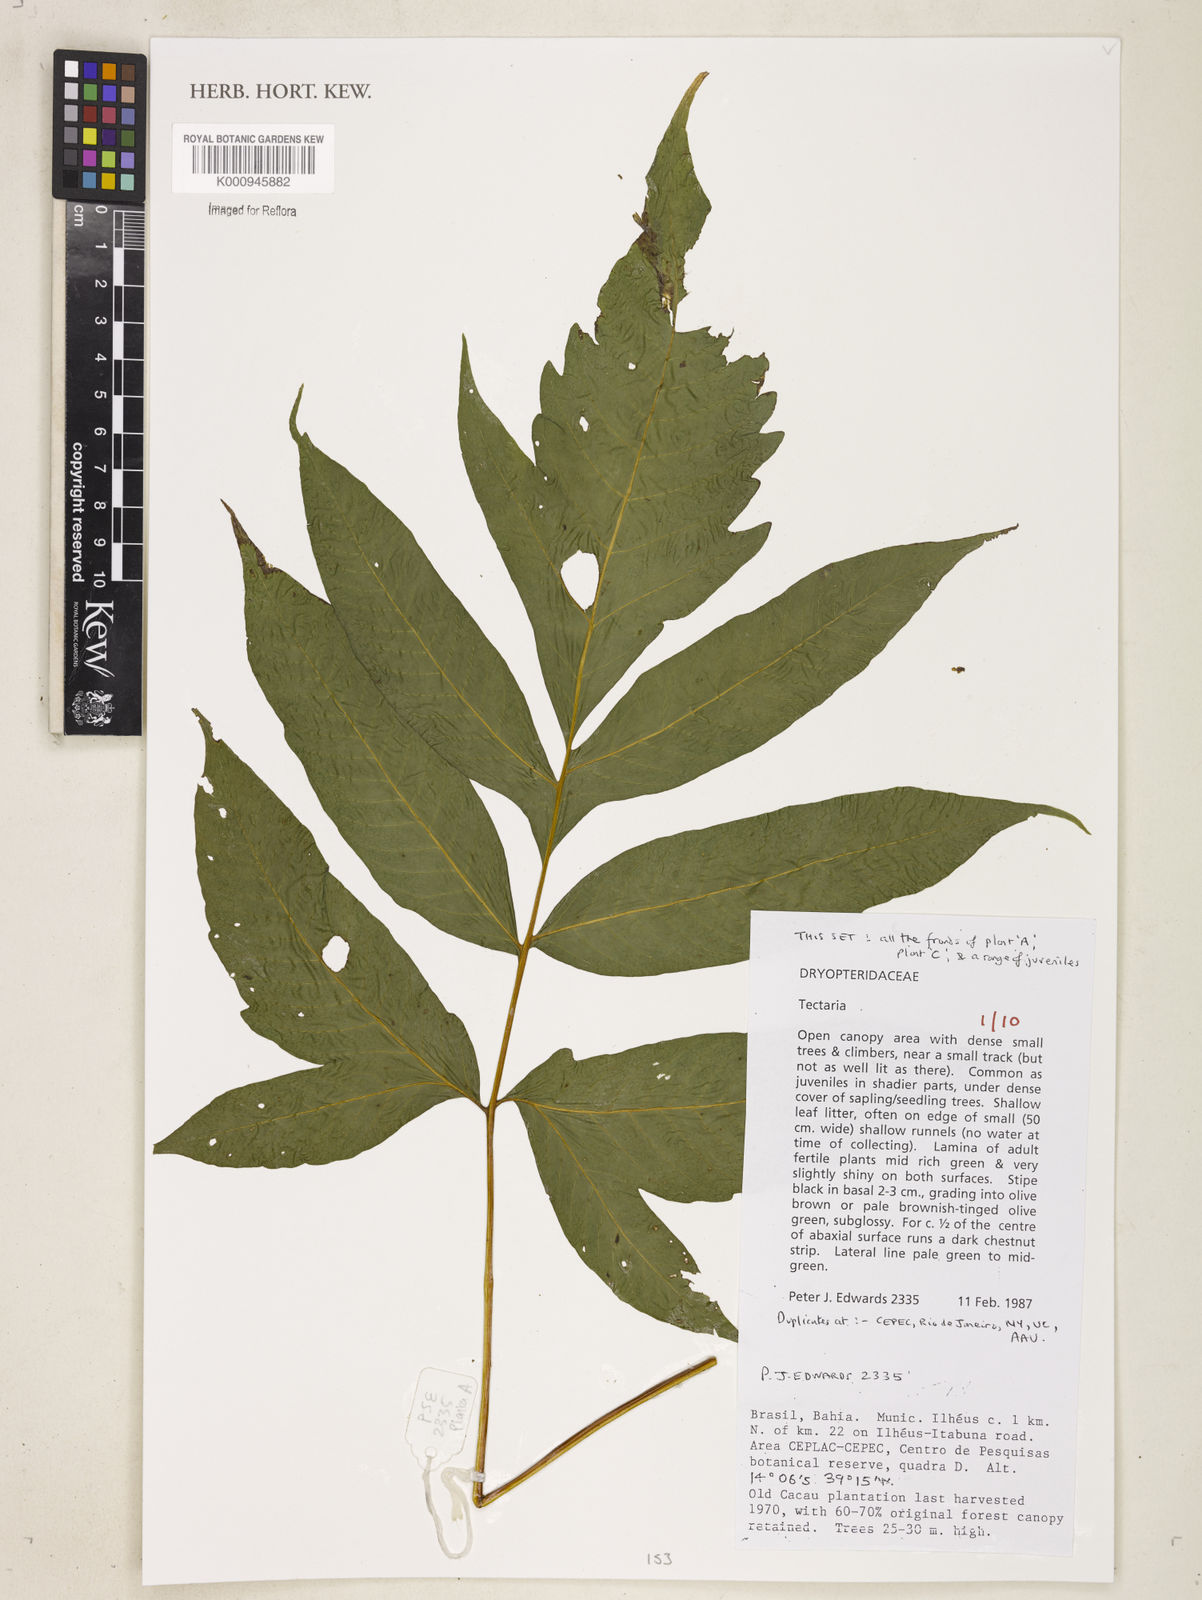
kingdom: Plantae
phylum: Tracheophyta
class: Polypodiopsida
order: Polypodiales
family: Tectariaceae
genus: Tectaria
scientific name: Tectaria
